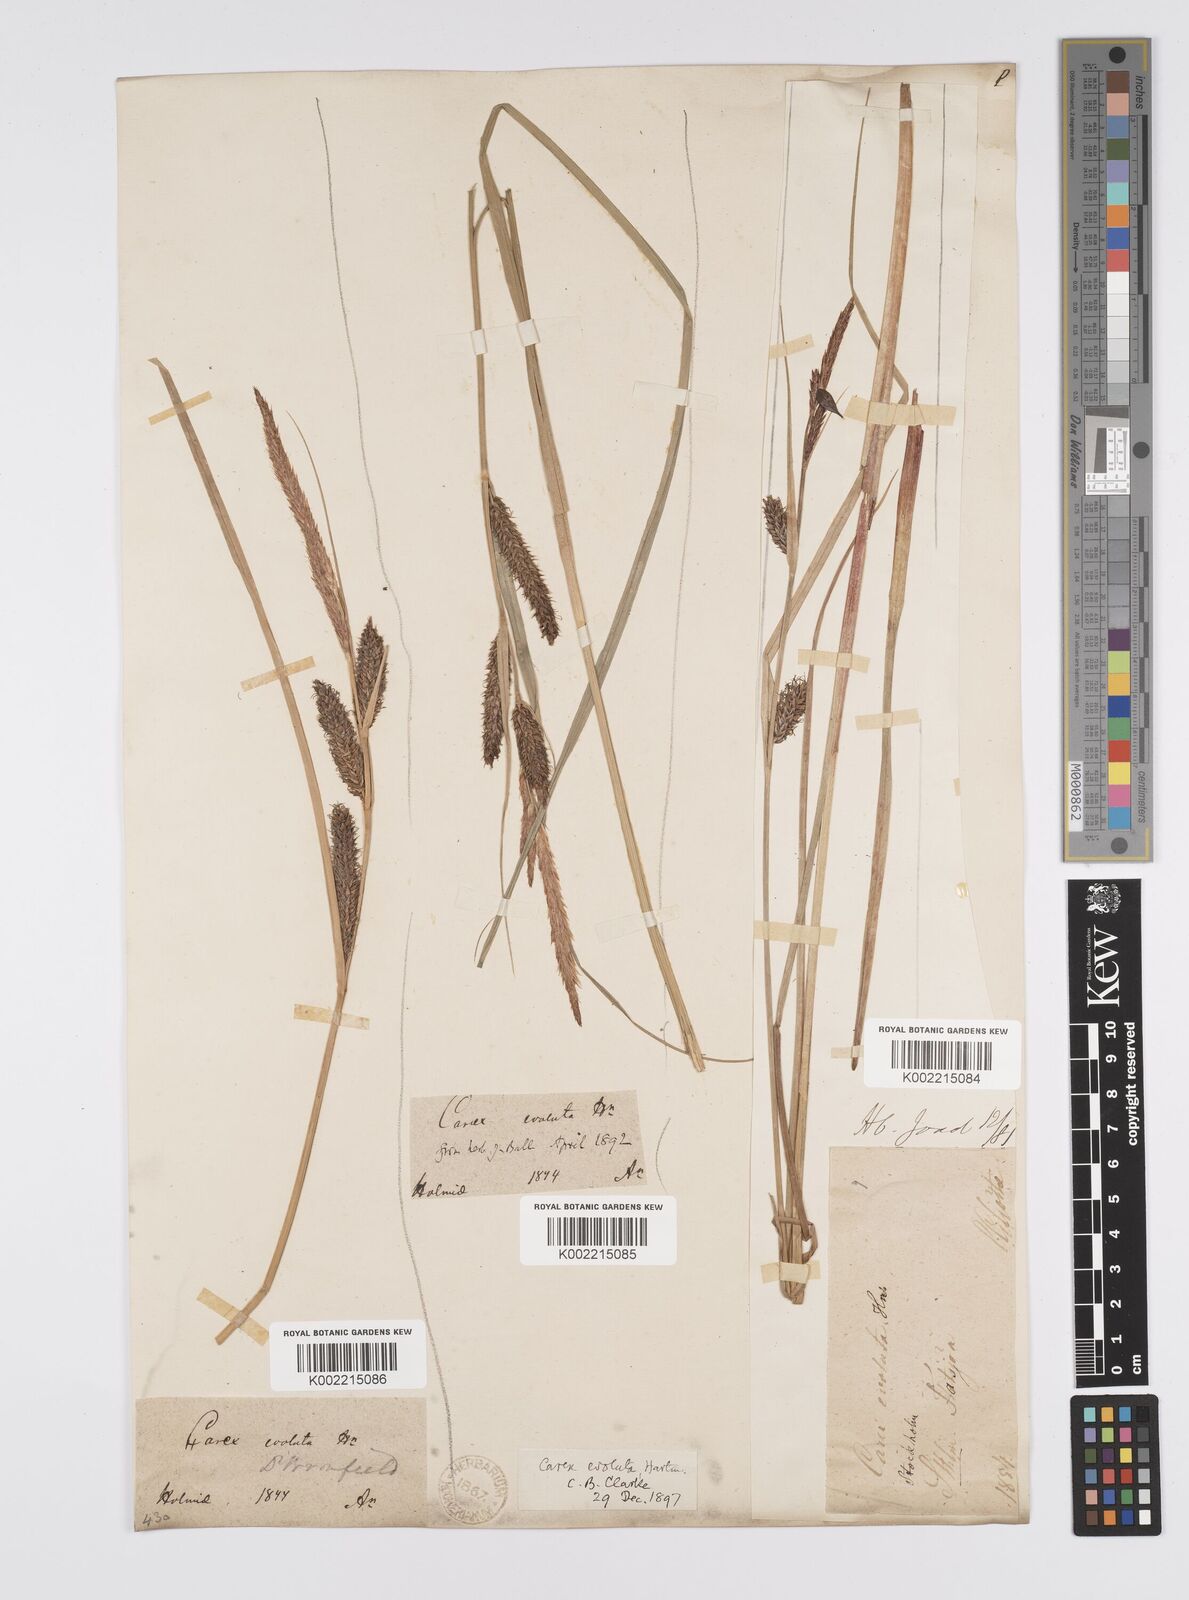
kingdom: Plantae
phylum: Tracheophyta
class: Liliopsida
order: Poales
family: Cyperaceae
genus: Carex
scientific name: Carex evoluta
